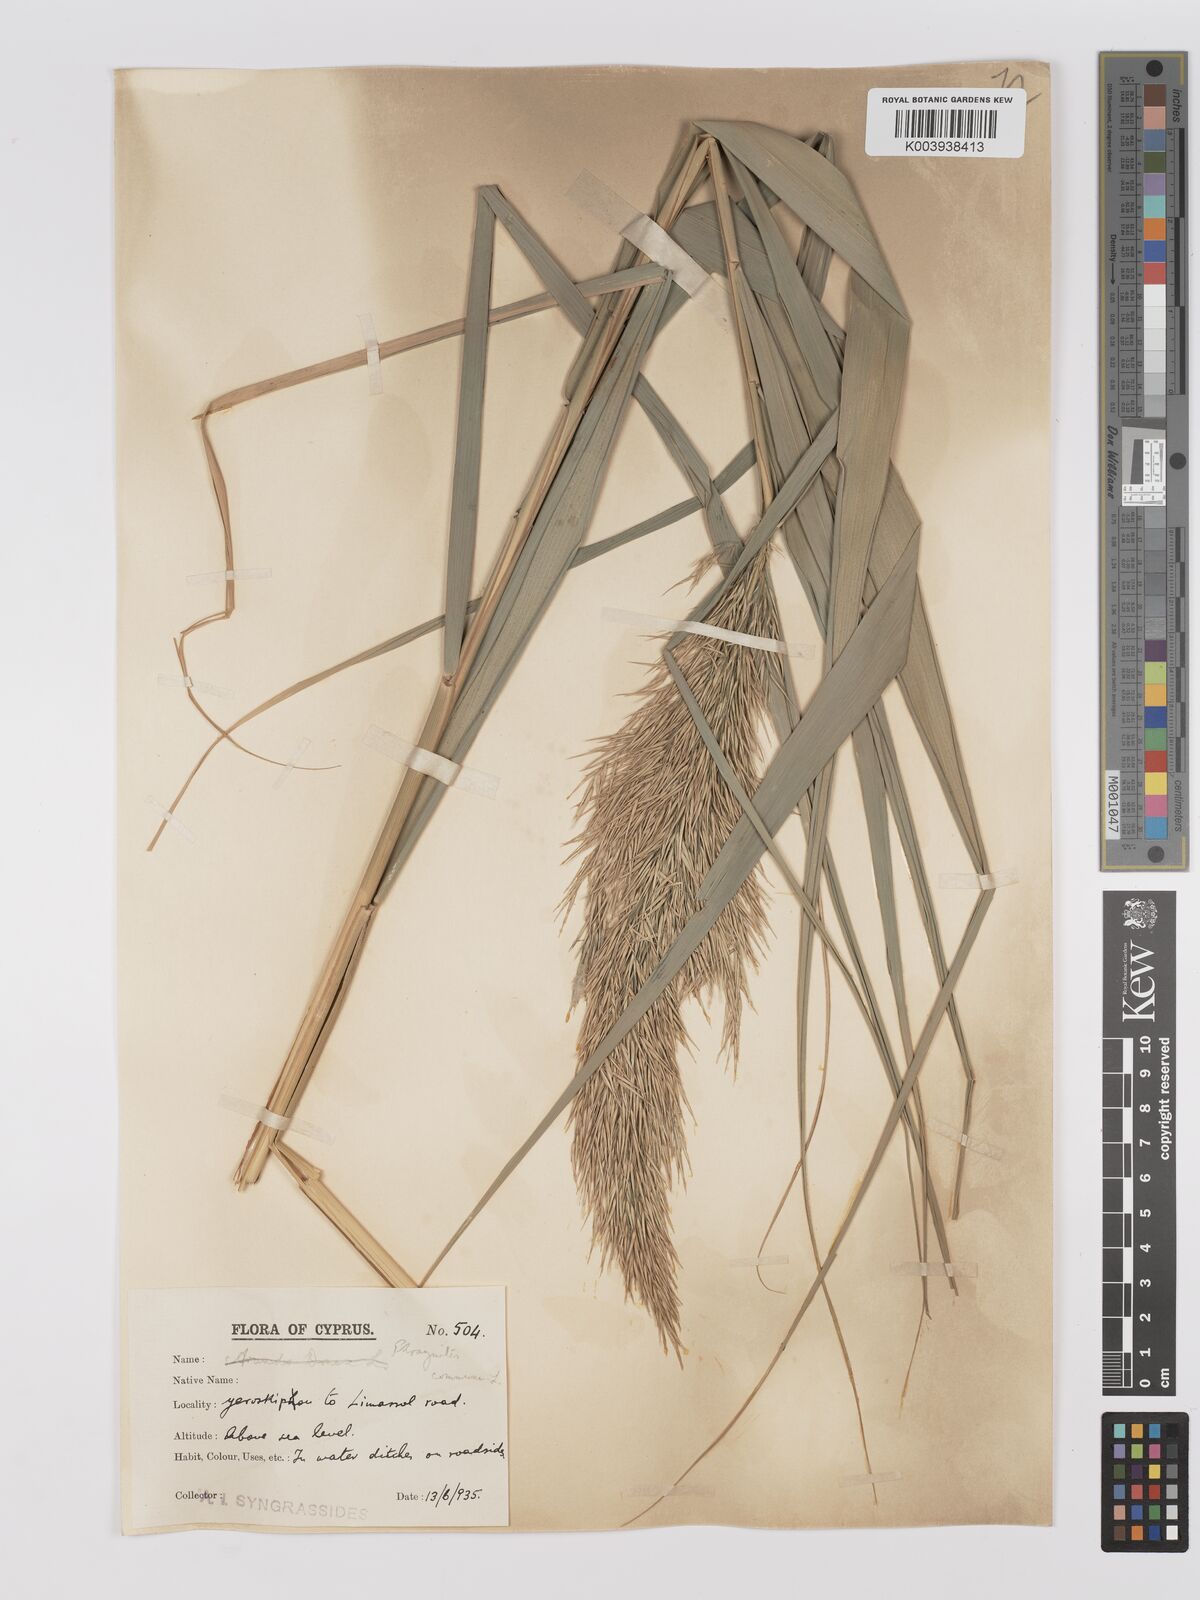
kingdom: Plantae
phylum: Tracheophyta
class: Liliopsida
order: Poales
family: Poaceae
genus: Phragmites
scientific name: Phragmites australis
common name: Common reed
